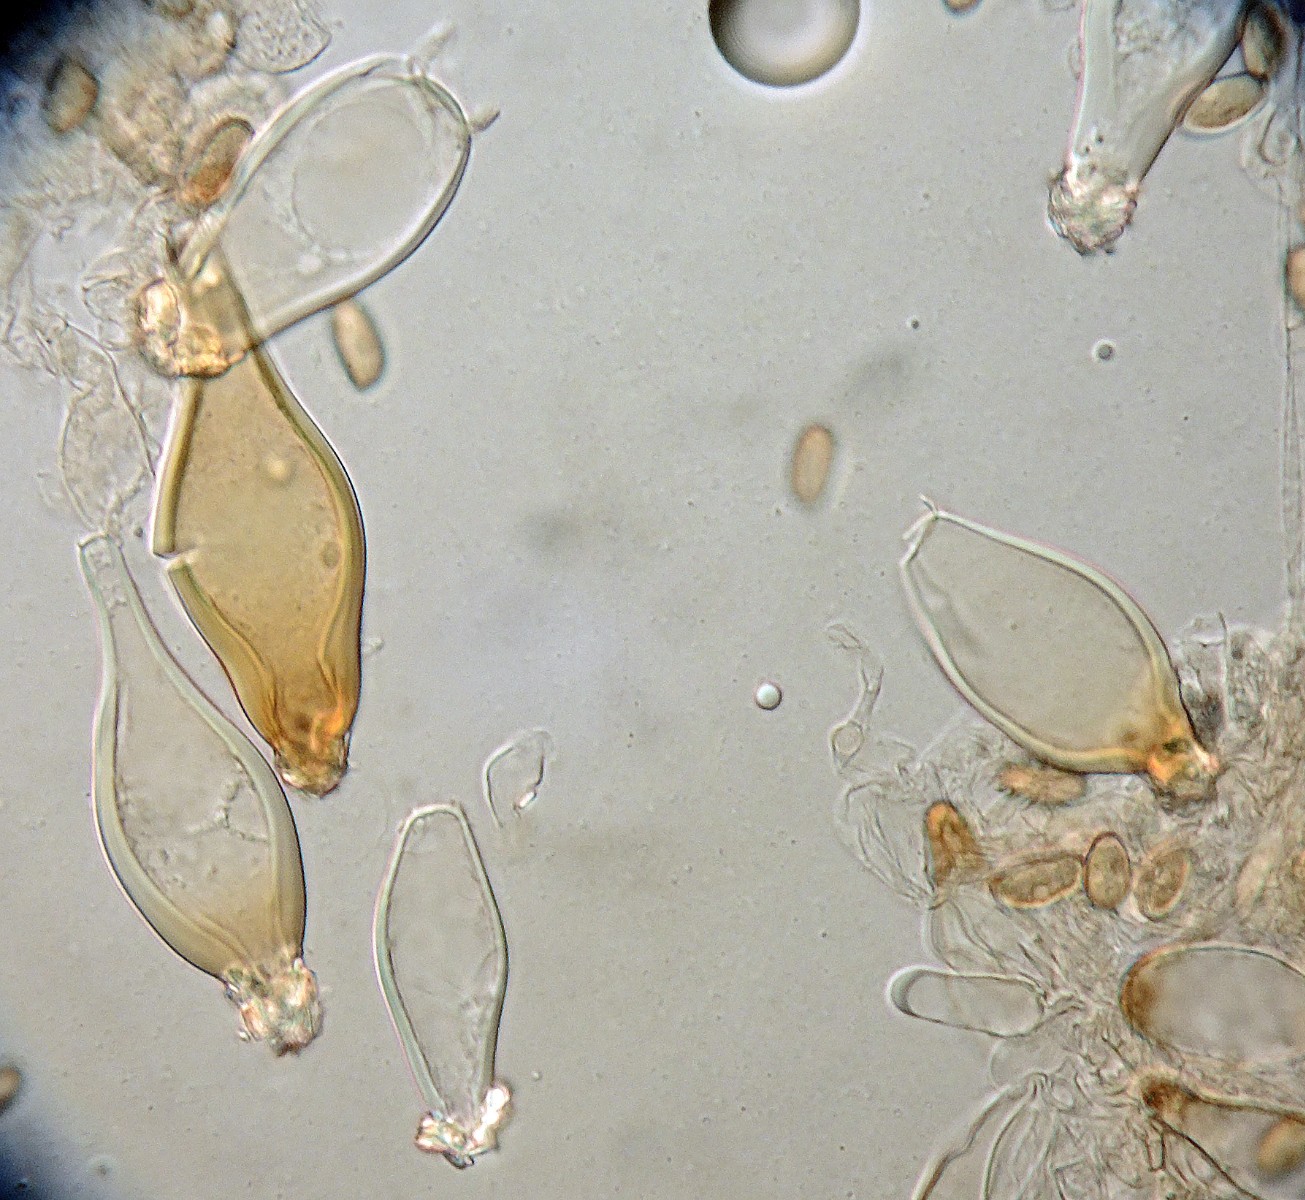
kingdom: Fungi
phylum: Basidiomycota
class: Agaricomycetes
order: Agaricales
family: Inocybaceae
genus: Inocybe
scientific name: Inocybe helobia
